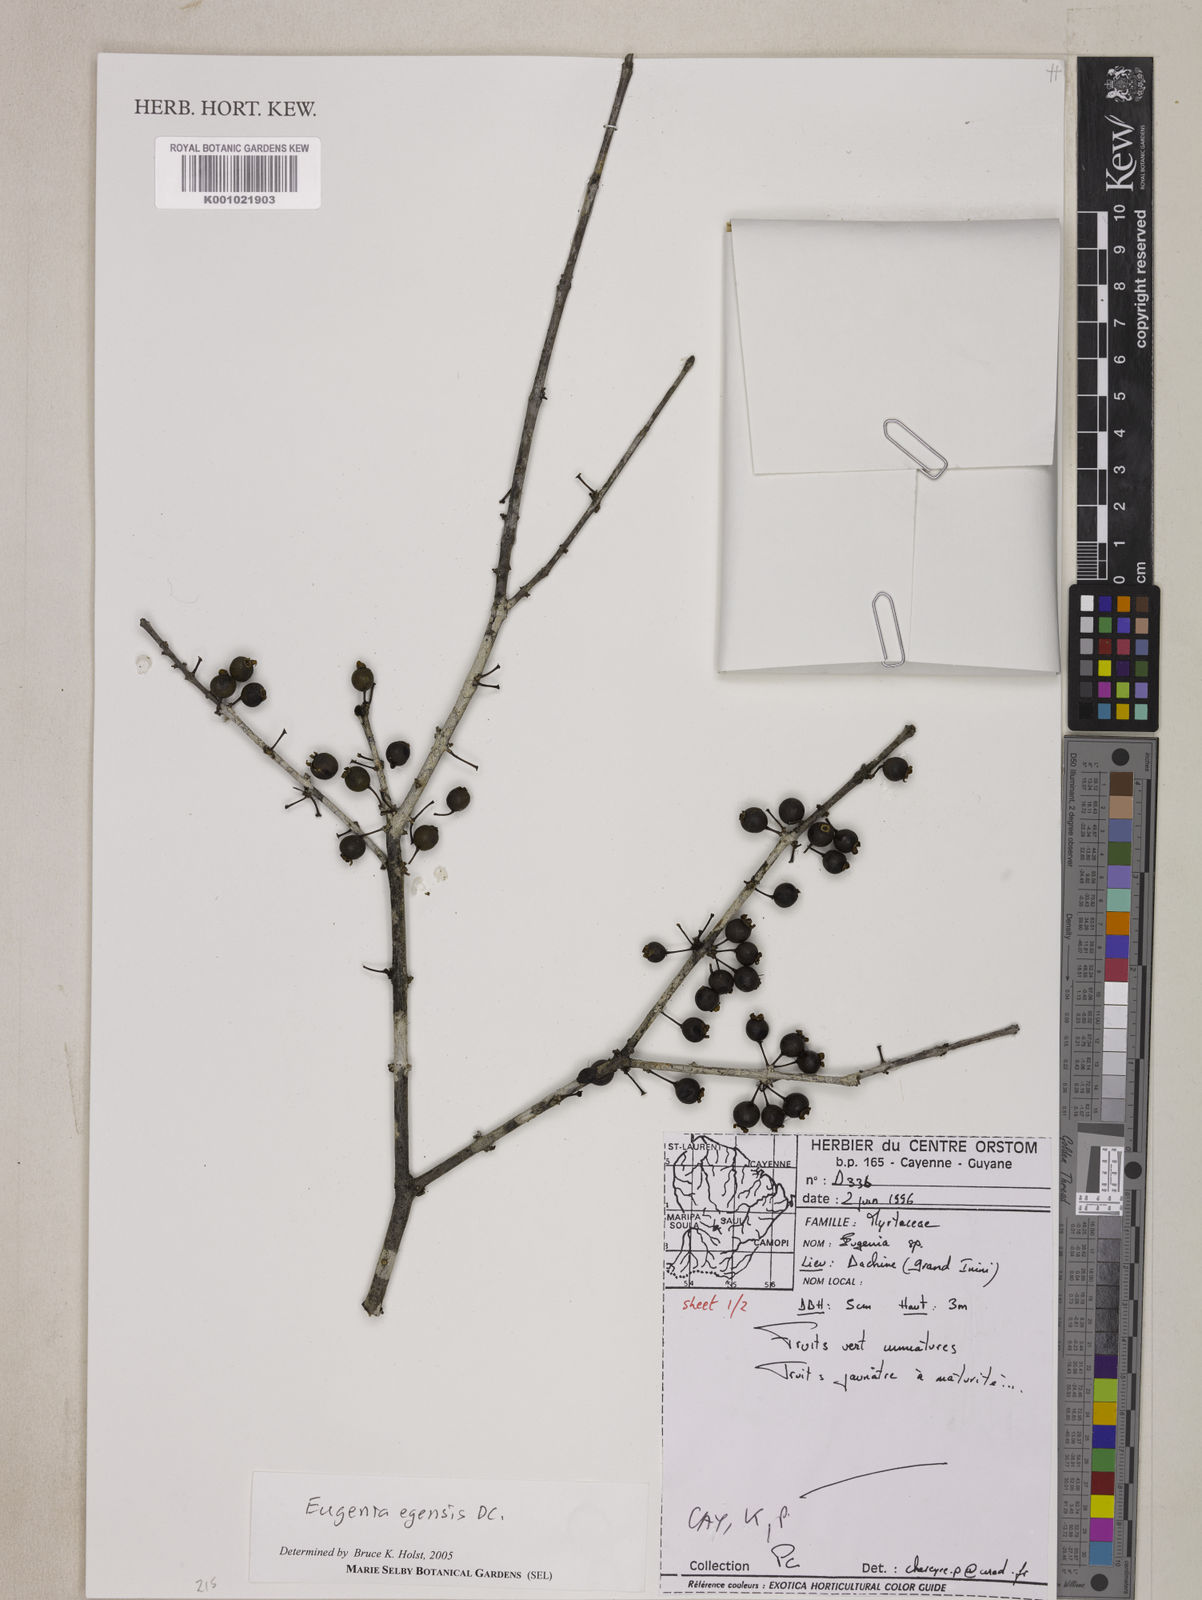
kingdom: Plantae
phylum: Tracheophyta
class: Magnoliopsida
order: Myrtales
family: Myrtaceae
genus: Eugenia
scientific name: Eugenia egensis
